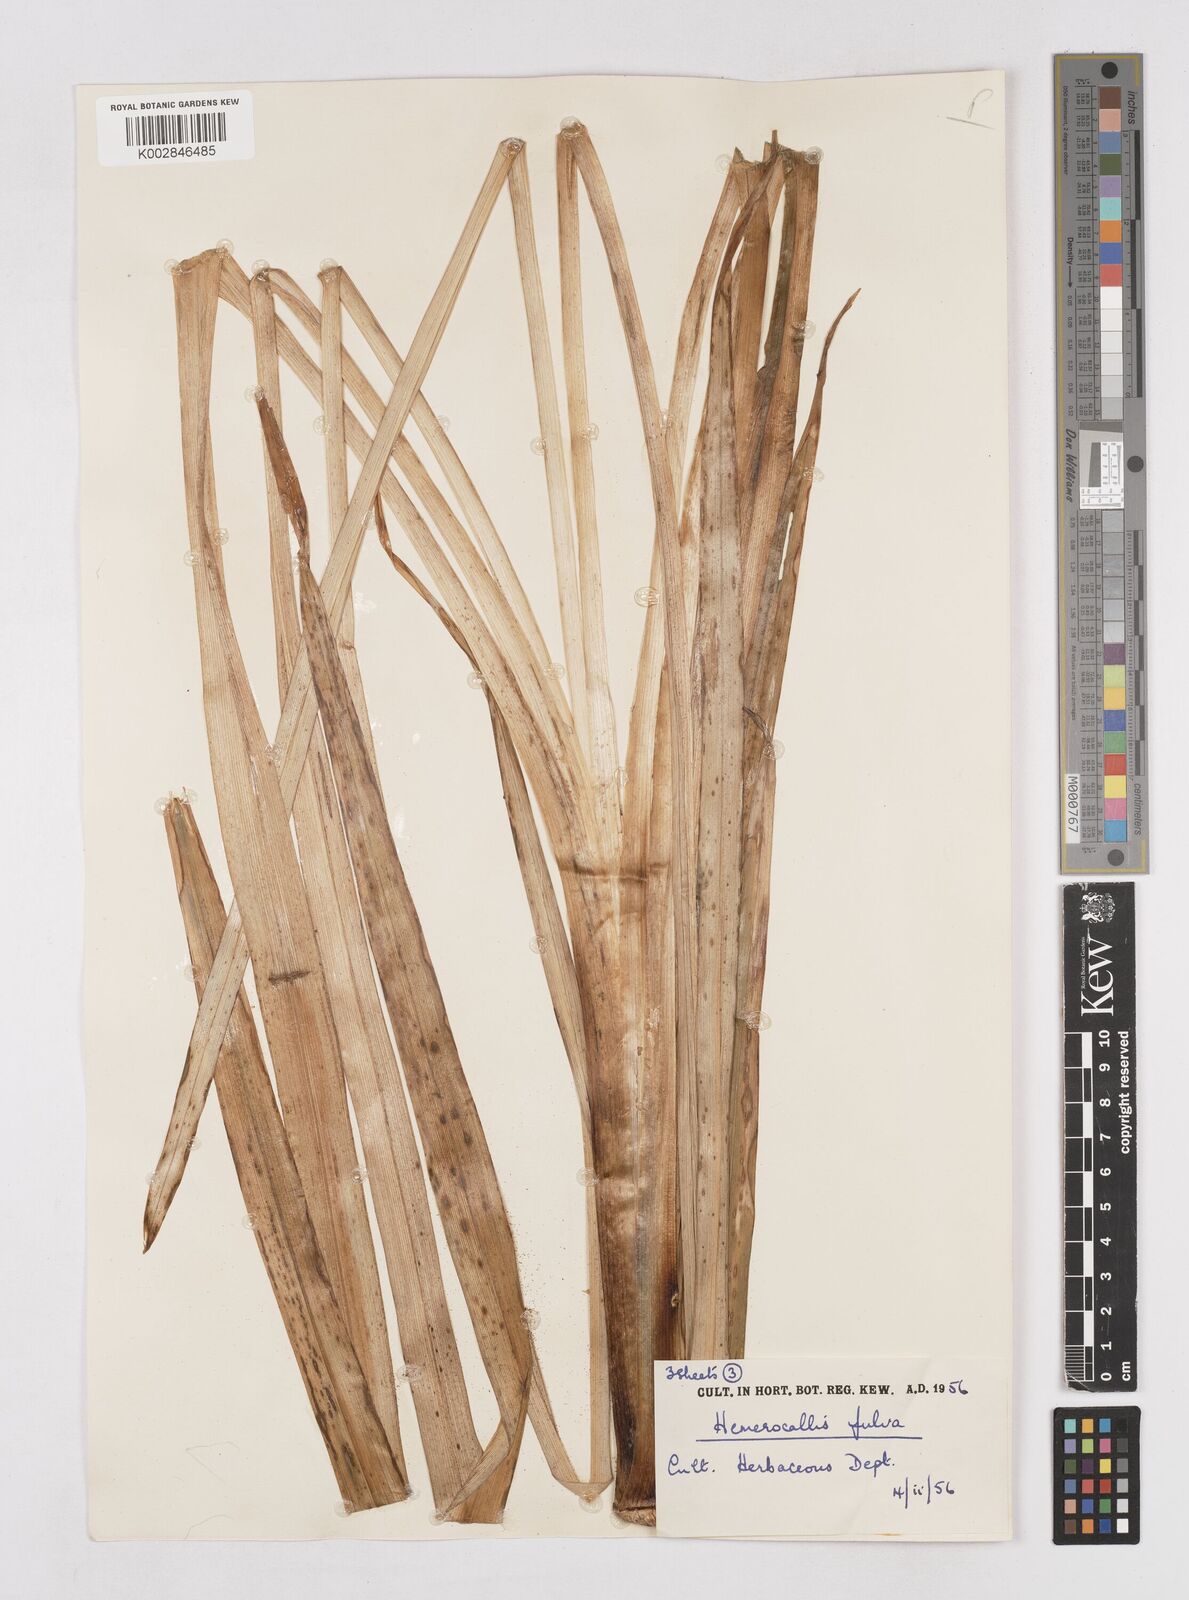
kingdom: Plantae
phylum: Tracheophyta
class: Liliopsida
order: Asparagales
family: Asphodelaceae
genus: Hemerocallis
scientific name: Hemerocallis lilioasphodelus
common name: Yellow day-lily
